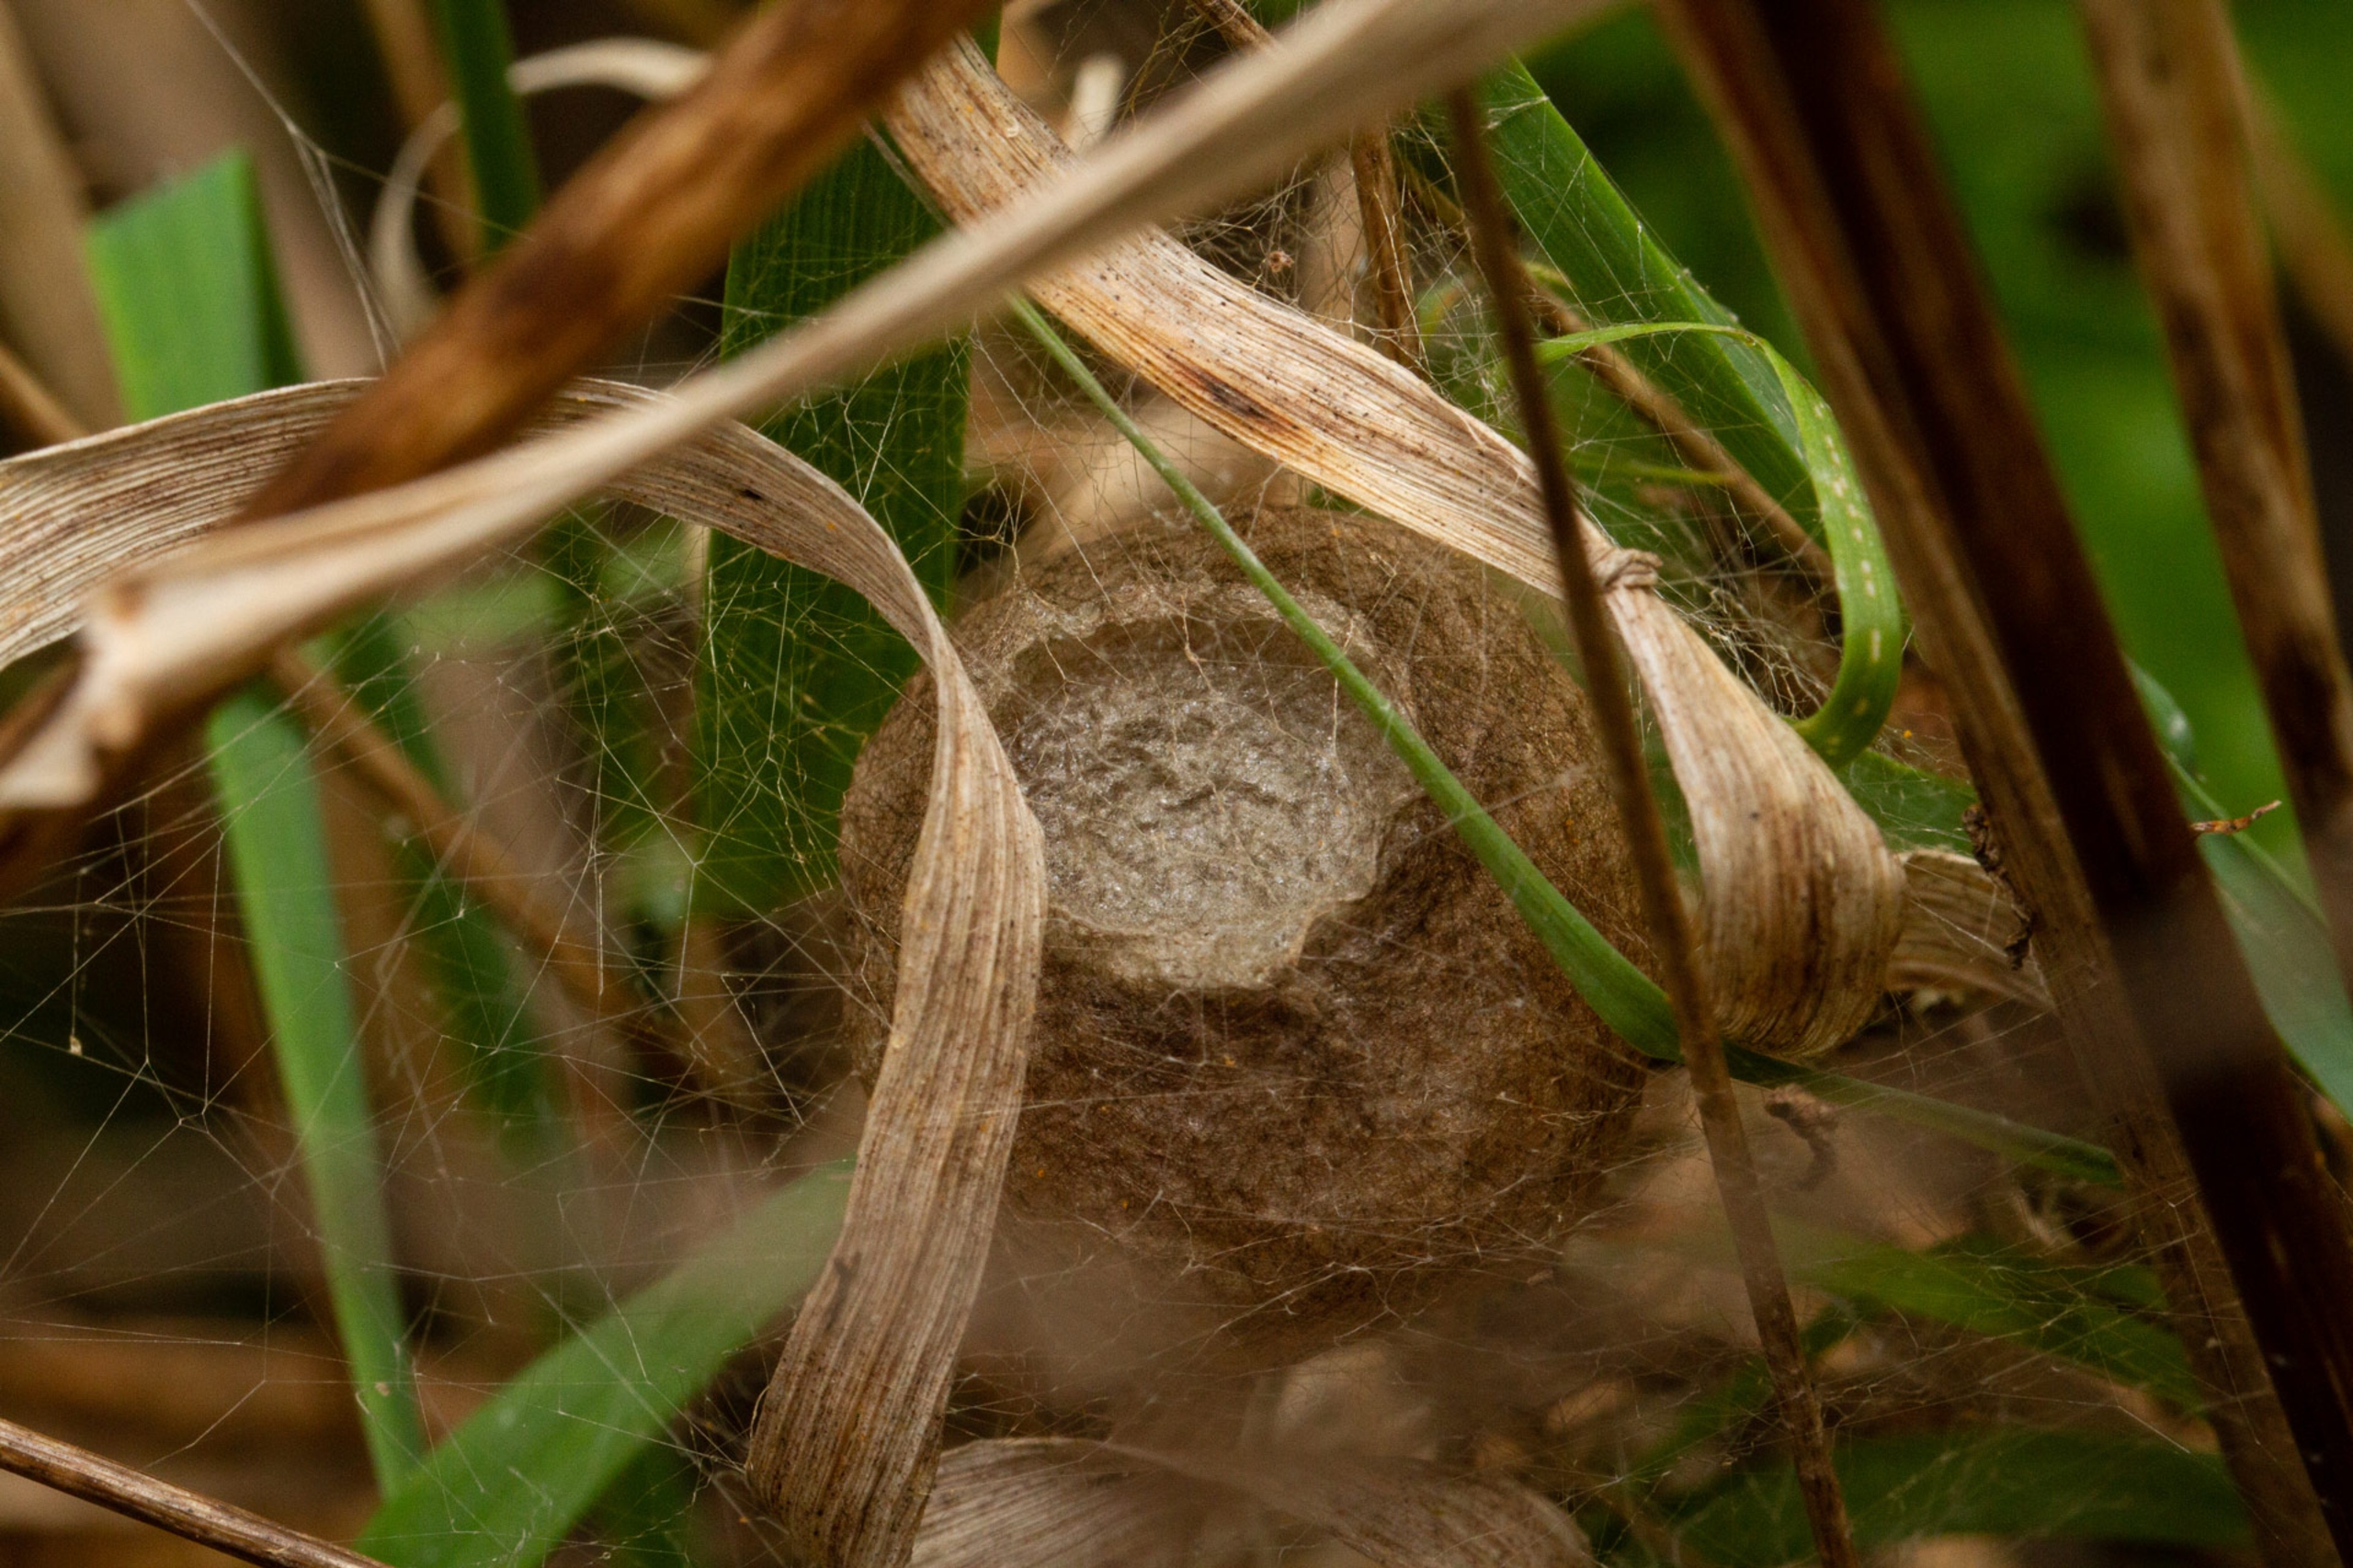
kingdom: Animalia
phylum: Arthropoda
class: Arachnida
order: Araneae
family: Araneidae
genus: Argiope
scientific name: Argiope bruennichi
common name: Hvepseedderkop
